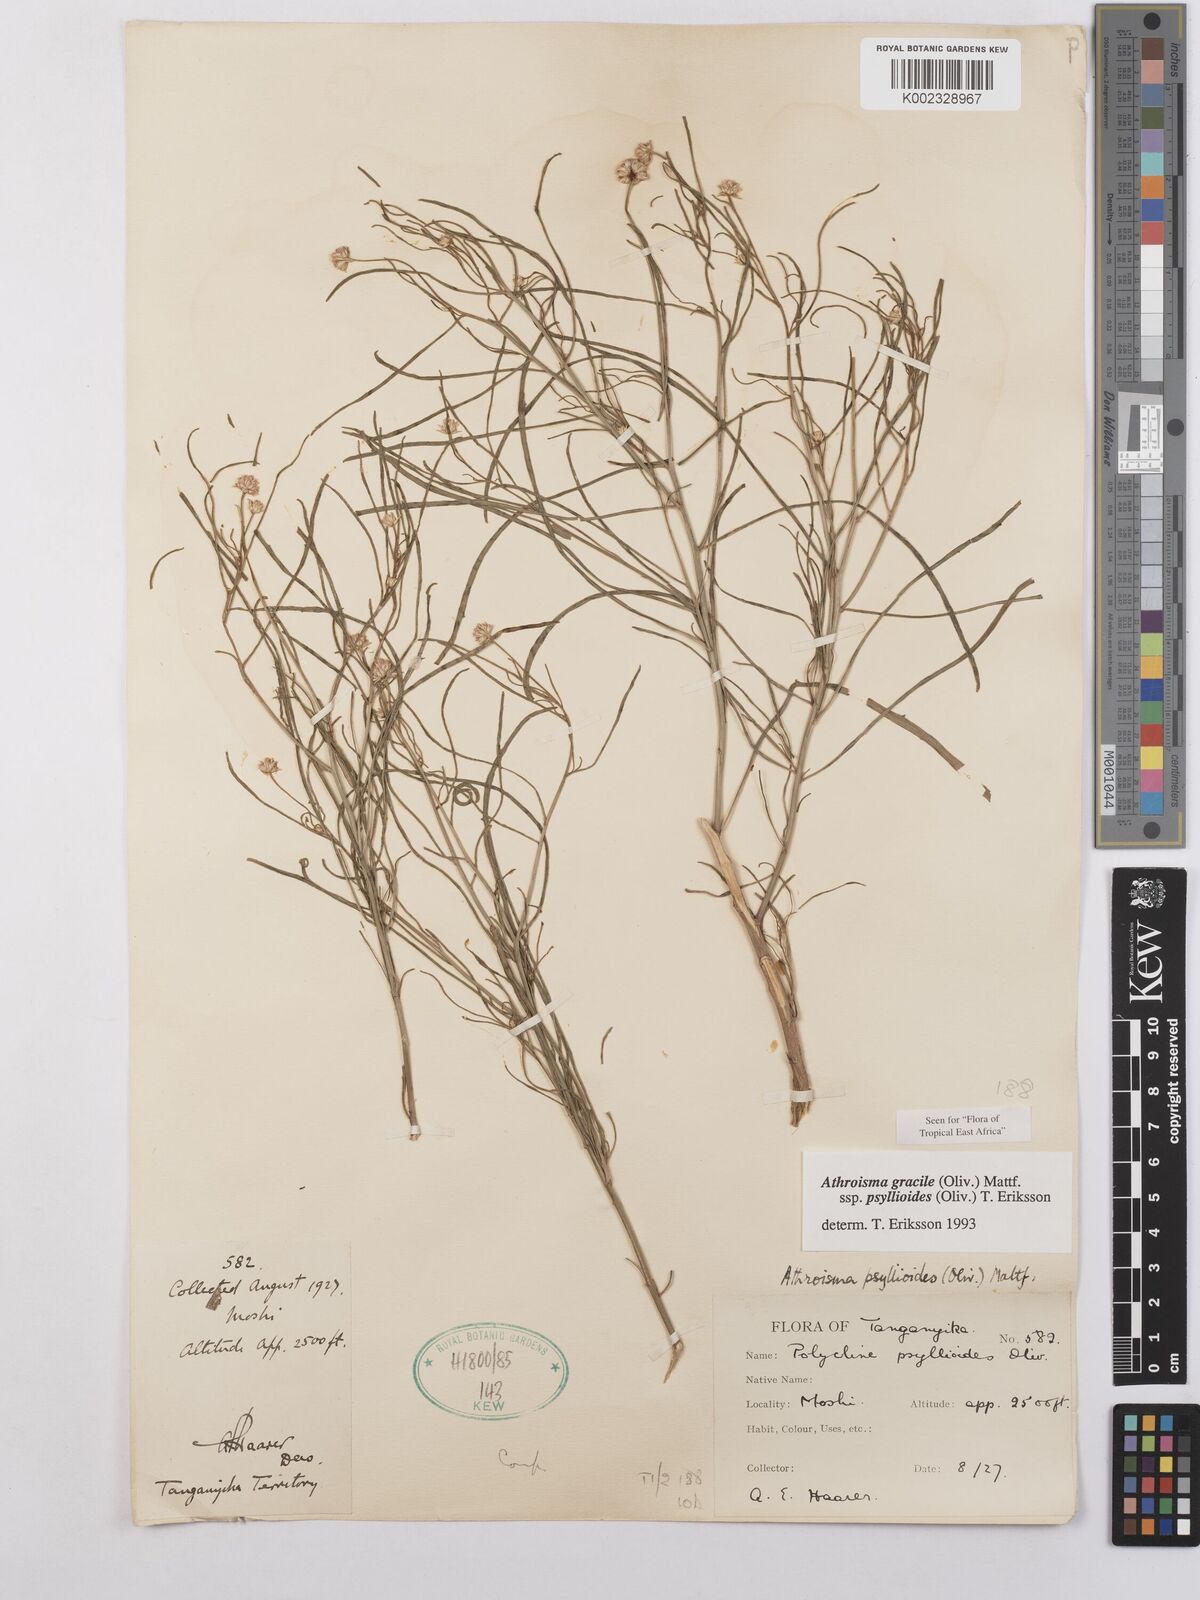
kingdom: Plantae
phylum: Tracheophyta
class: Magnoliopsida
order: Asterales
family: Asteraceae
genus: Athroisma
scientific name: Athroisma gracile
